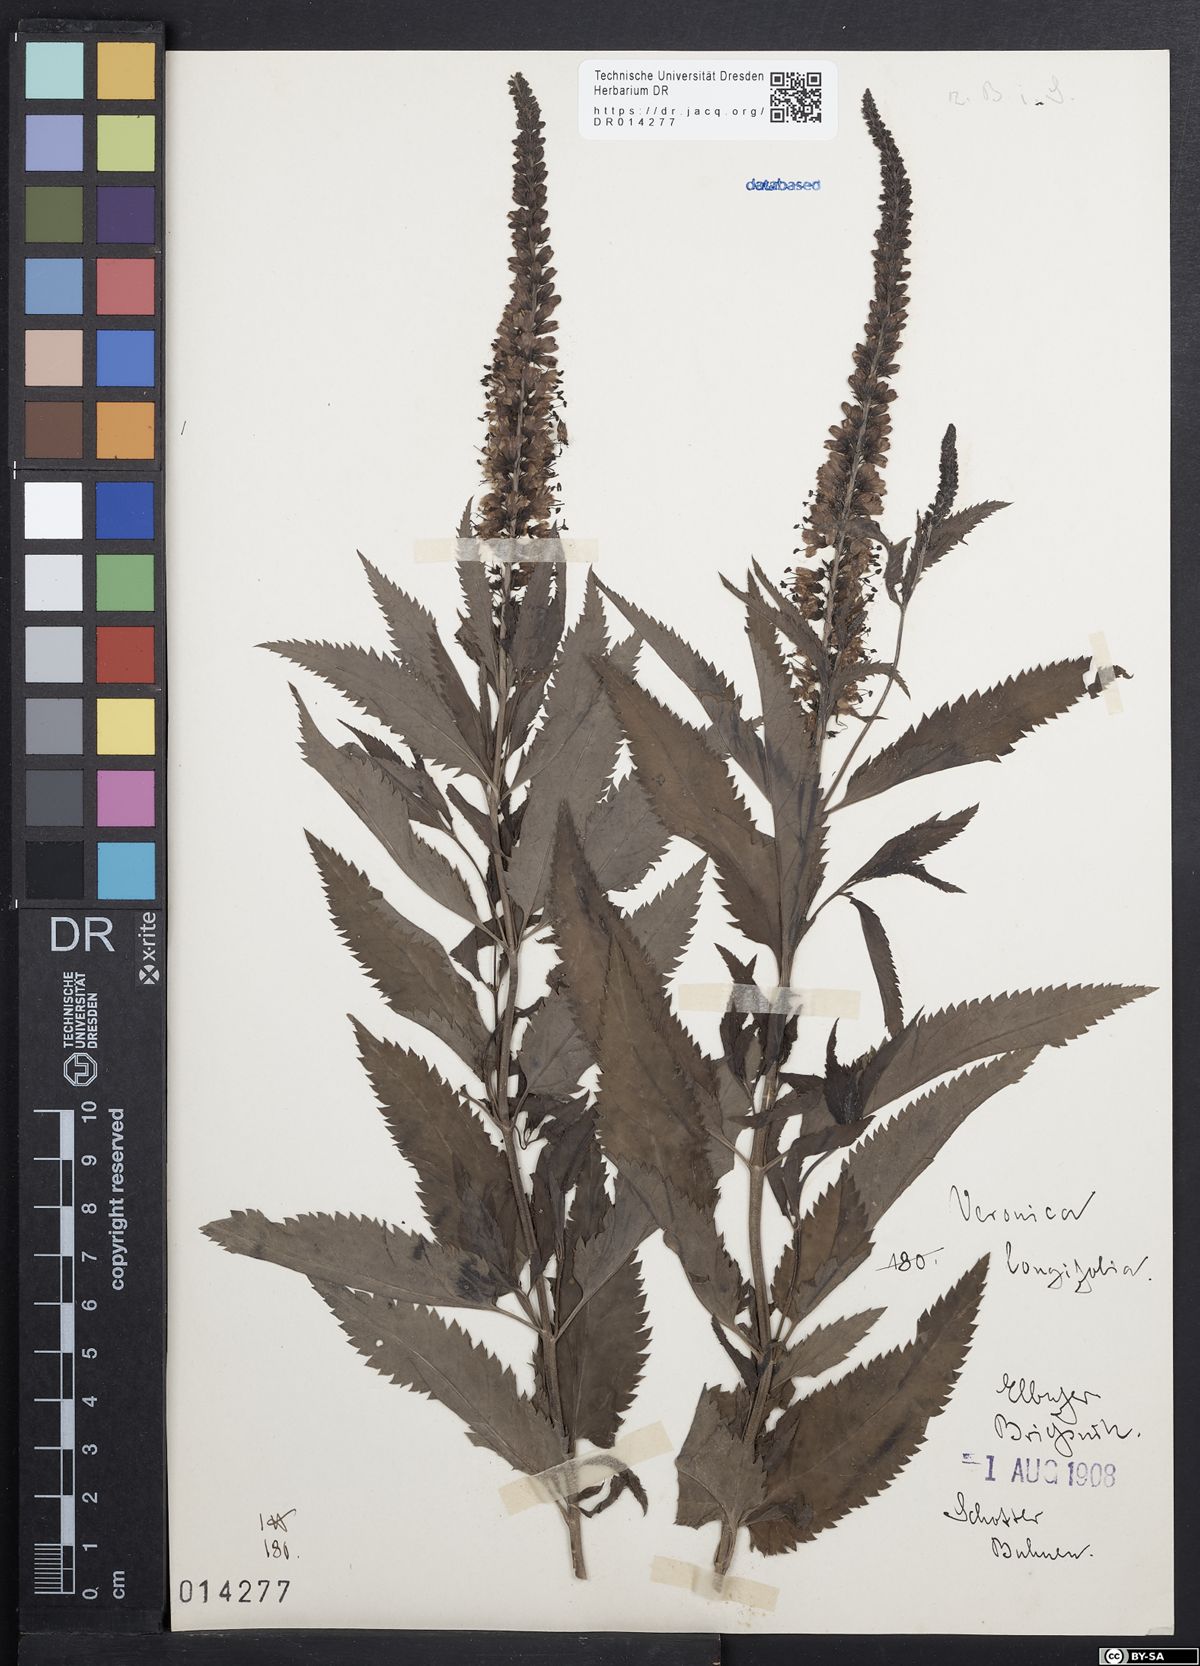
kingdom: Plantae
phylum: Tracheophyta
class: Magnoliopsida
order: Lamiales
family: Plantaginaceae
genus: Veronica
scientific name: Veronica longifolia
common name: Garden speedwell
